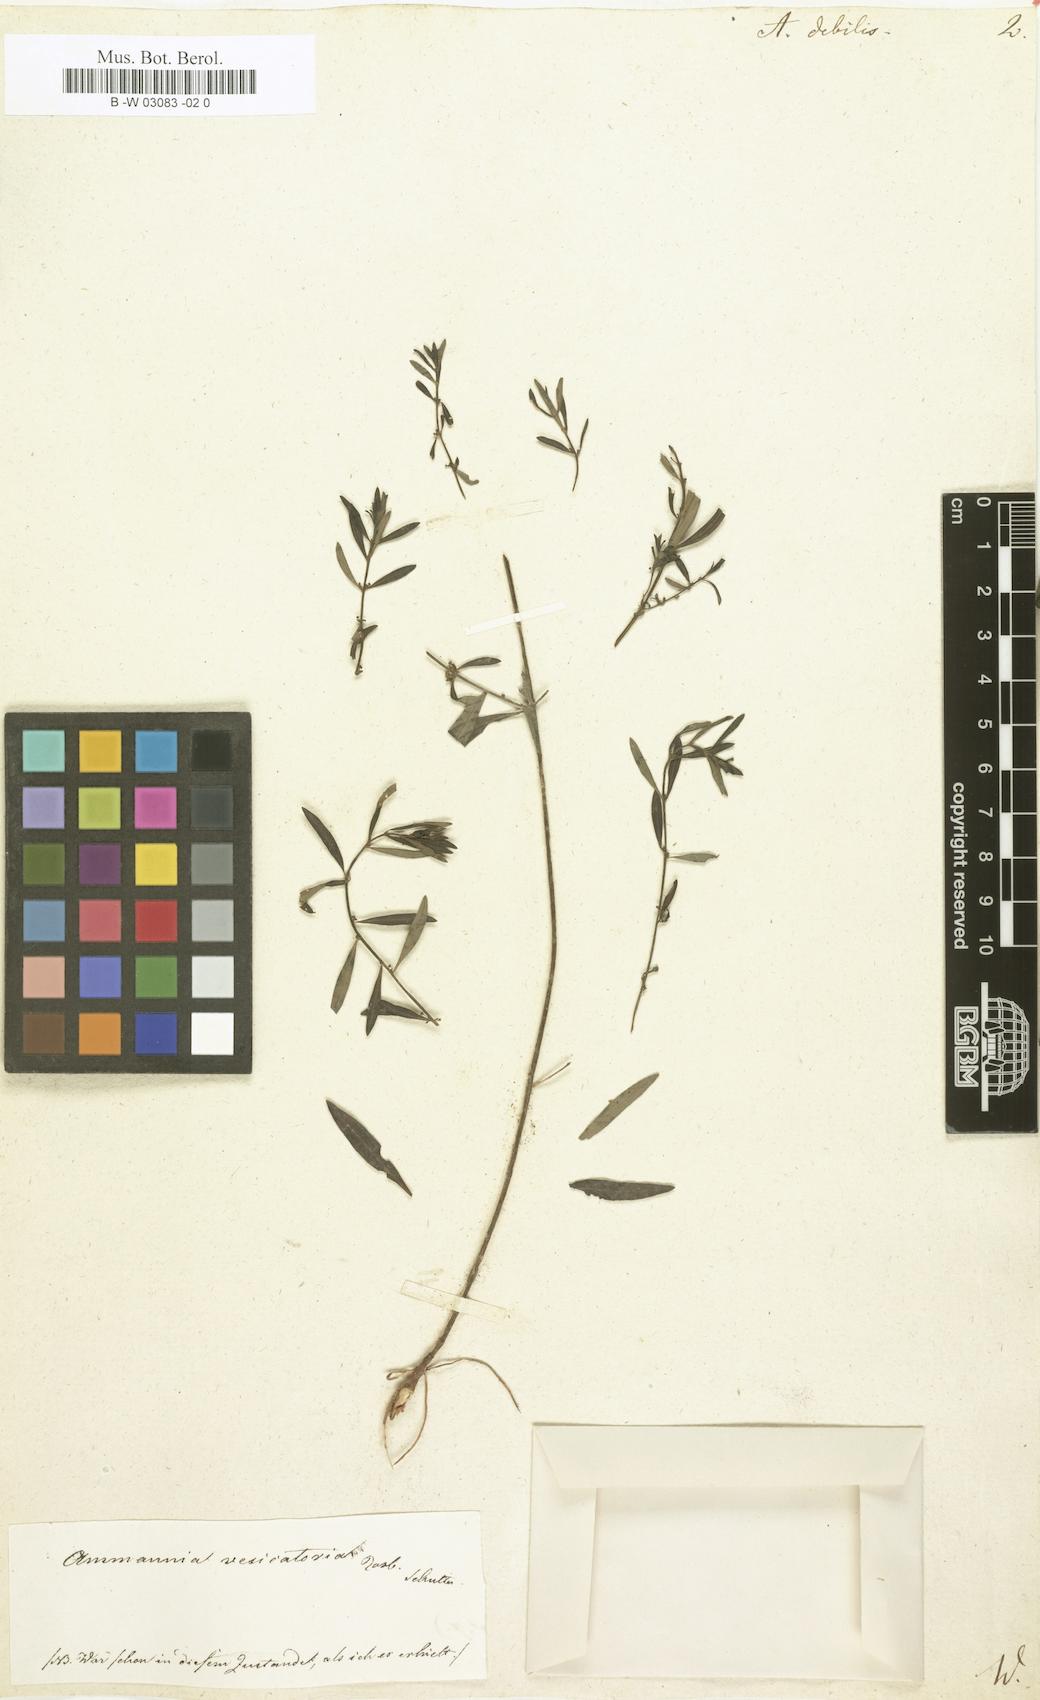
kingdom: Plantae
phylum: Tracheophyta
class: Magnoliopsida
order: Myrtales
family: Lythraceae
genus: Ammannia
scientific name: Ammannia auriculata
